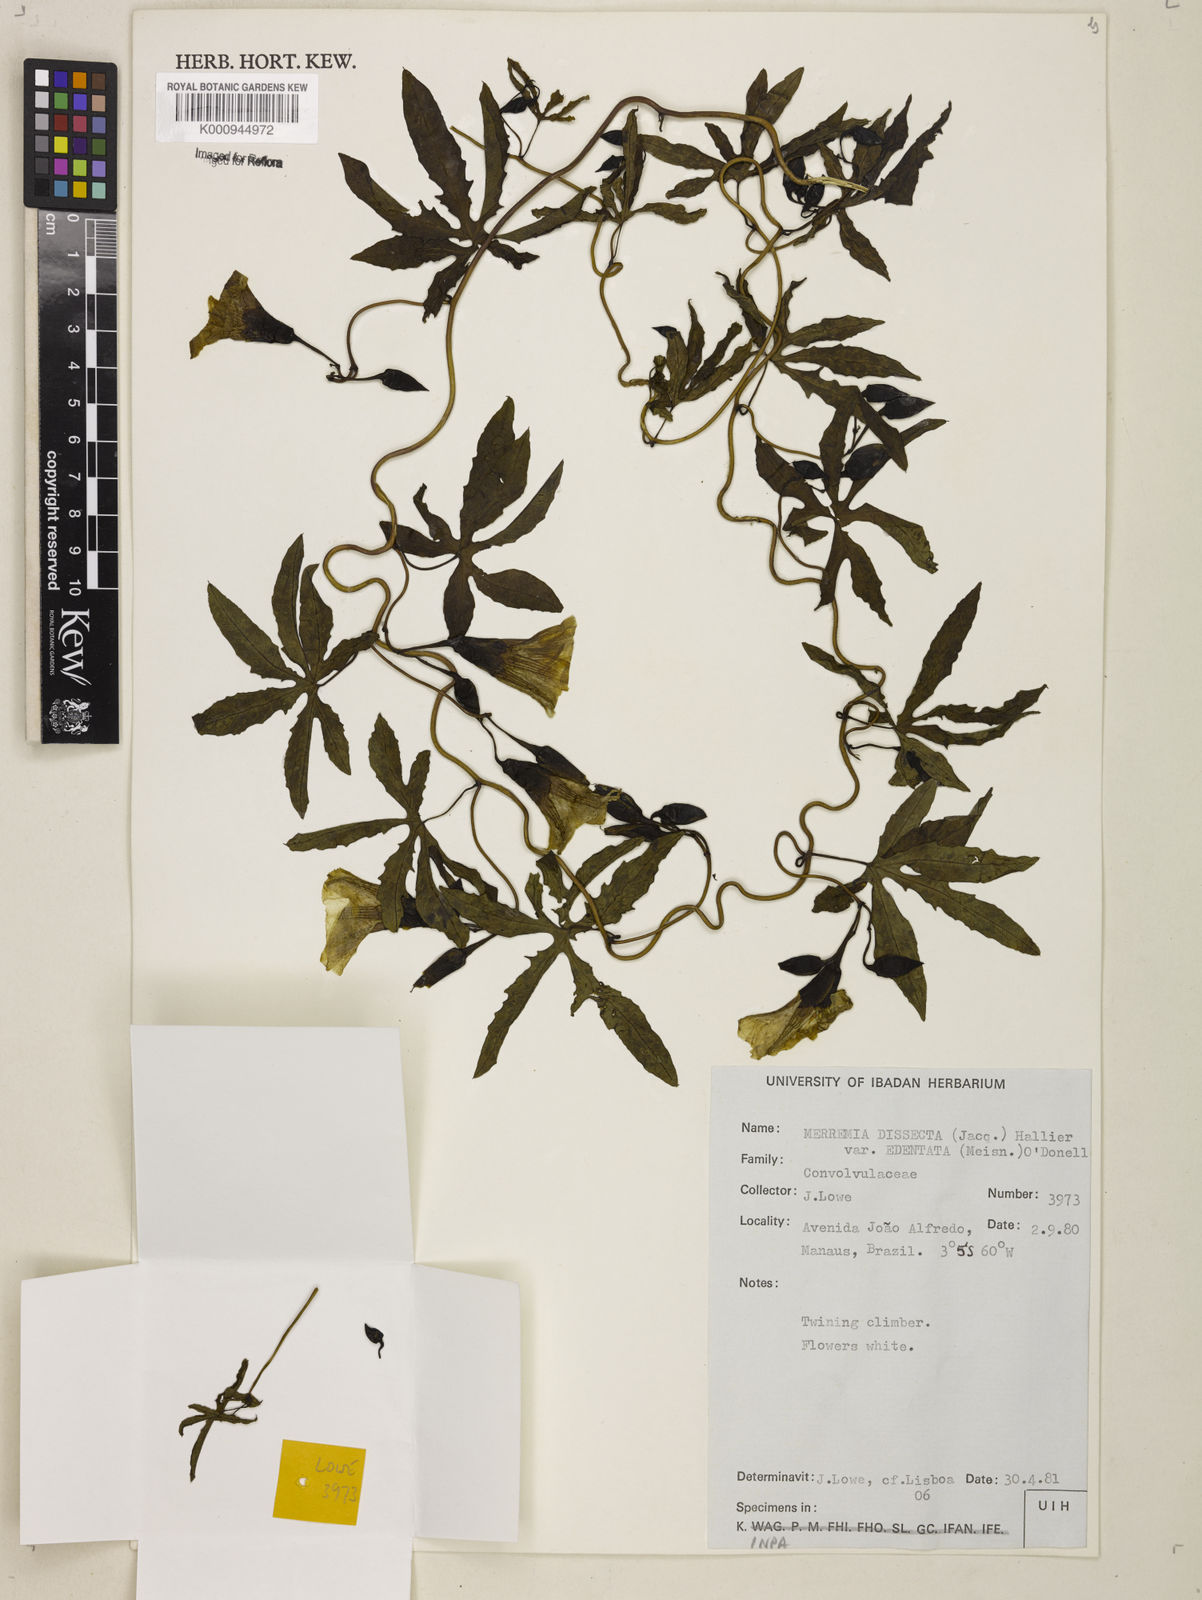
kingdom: Plantae
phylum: Tracheophyta
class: Magnoliopsida
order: Solanales
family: Convolvulaceae
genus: Distimake
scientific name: Distimake dissectus
